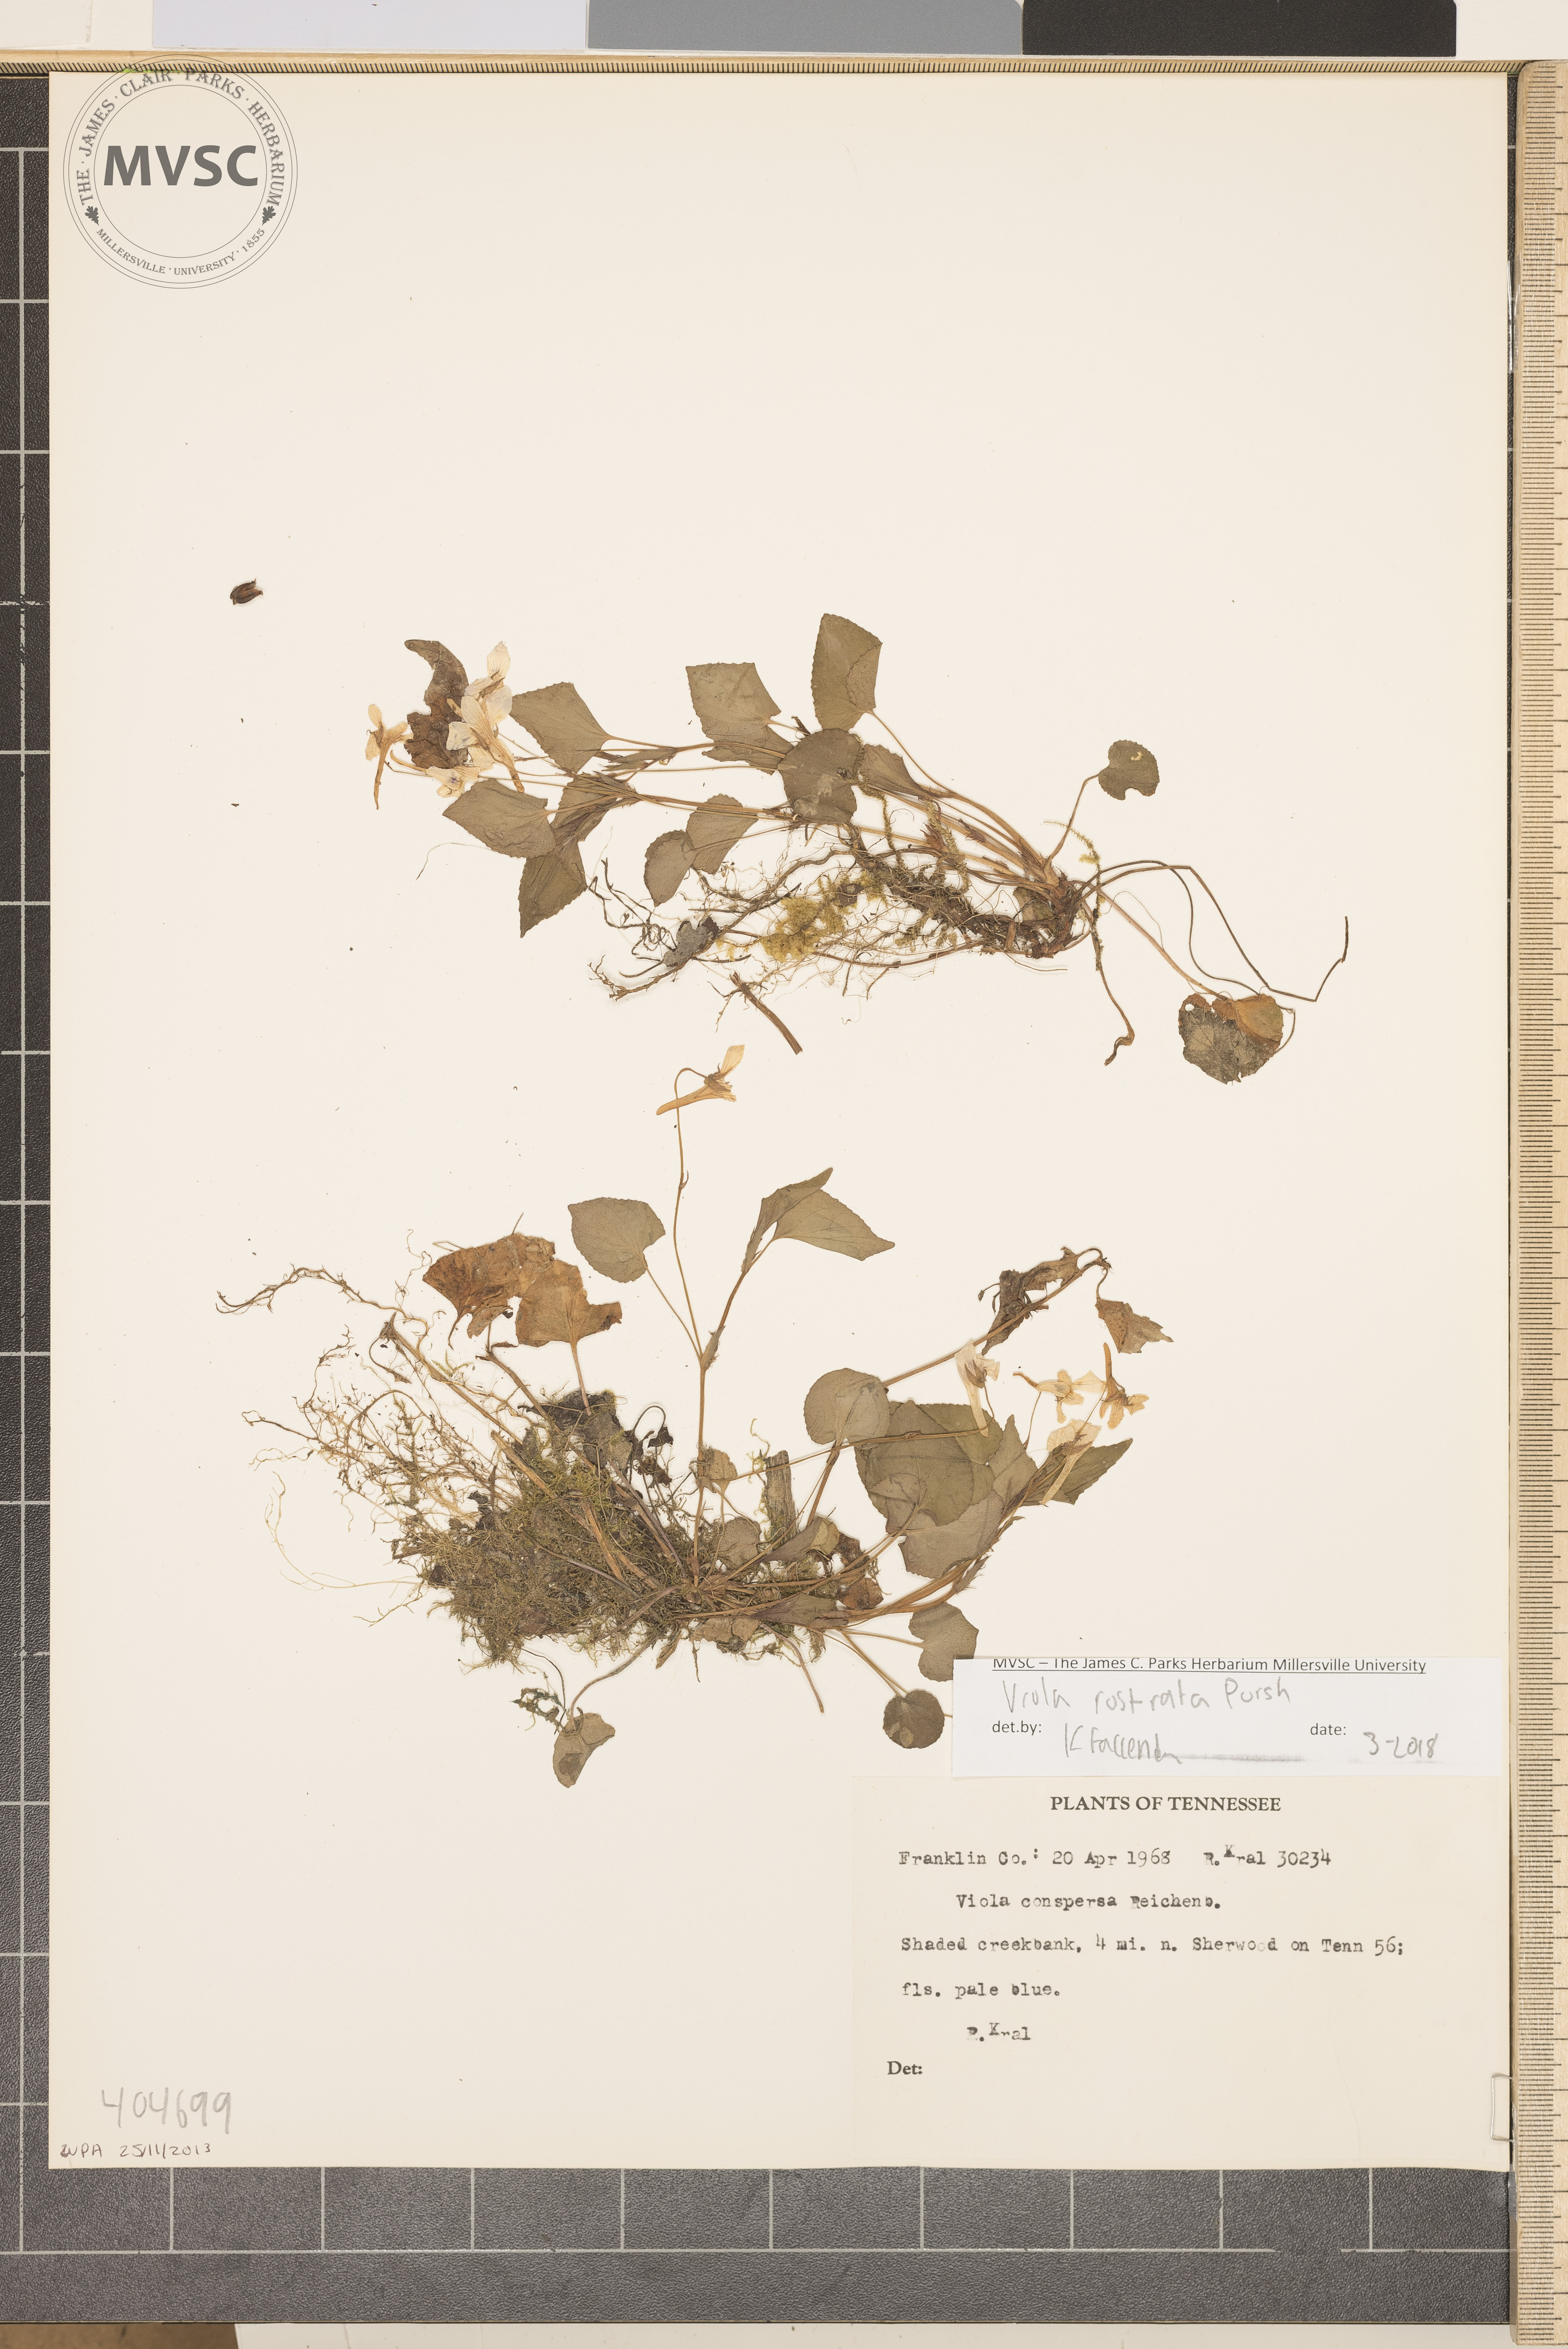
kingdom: Plantae
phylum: Tracheophyta
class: Magnoliopsida
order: Malpighiales
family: Violaceae
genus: Viola
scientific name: Viola rostrata
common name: Long-spur violet
